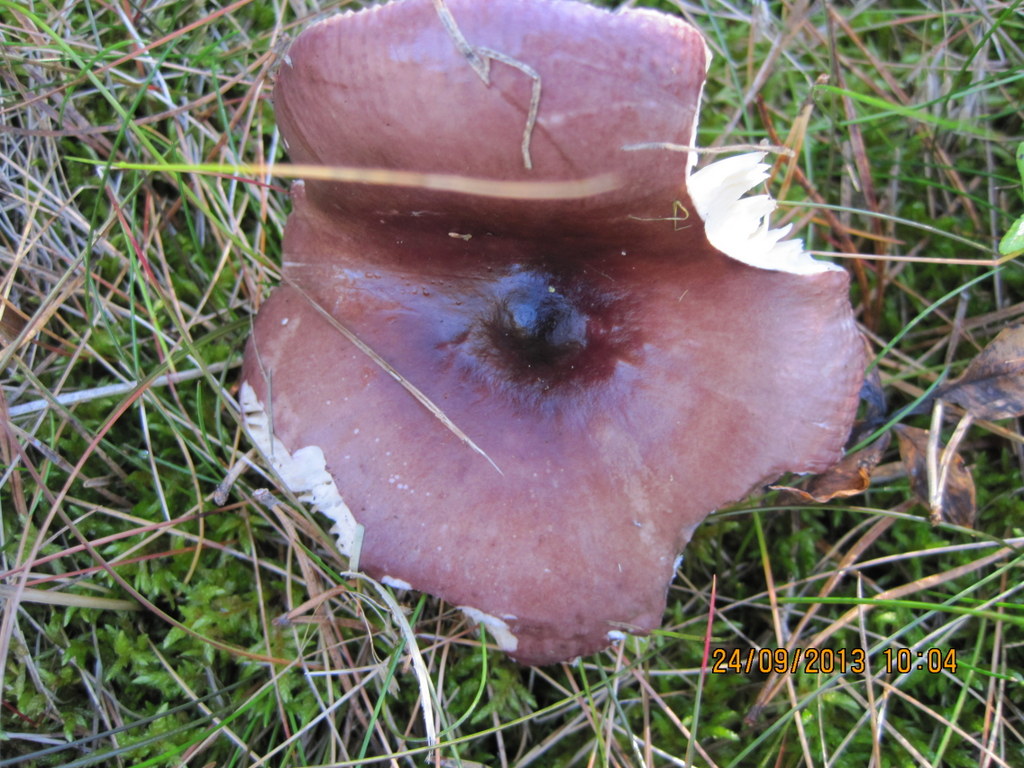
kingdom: Fungi
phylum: Basidiomycota
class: Agaricomycetes
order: Russulales
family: Russulaceae
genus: Russula
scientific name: Russula caerulea
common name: puklet skørhat
